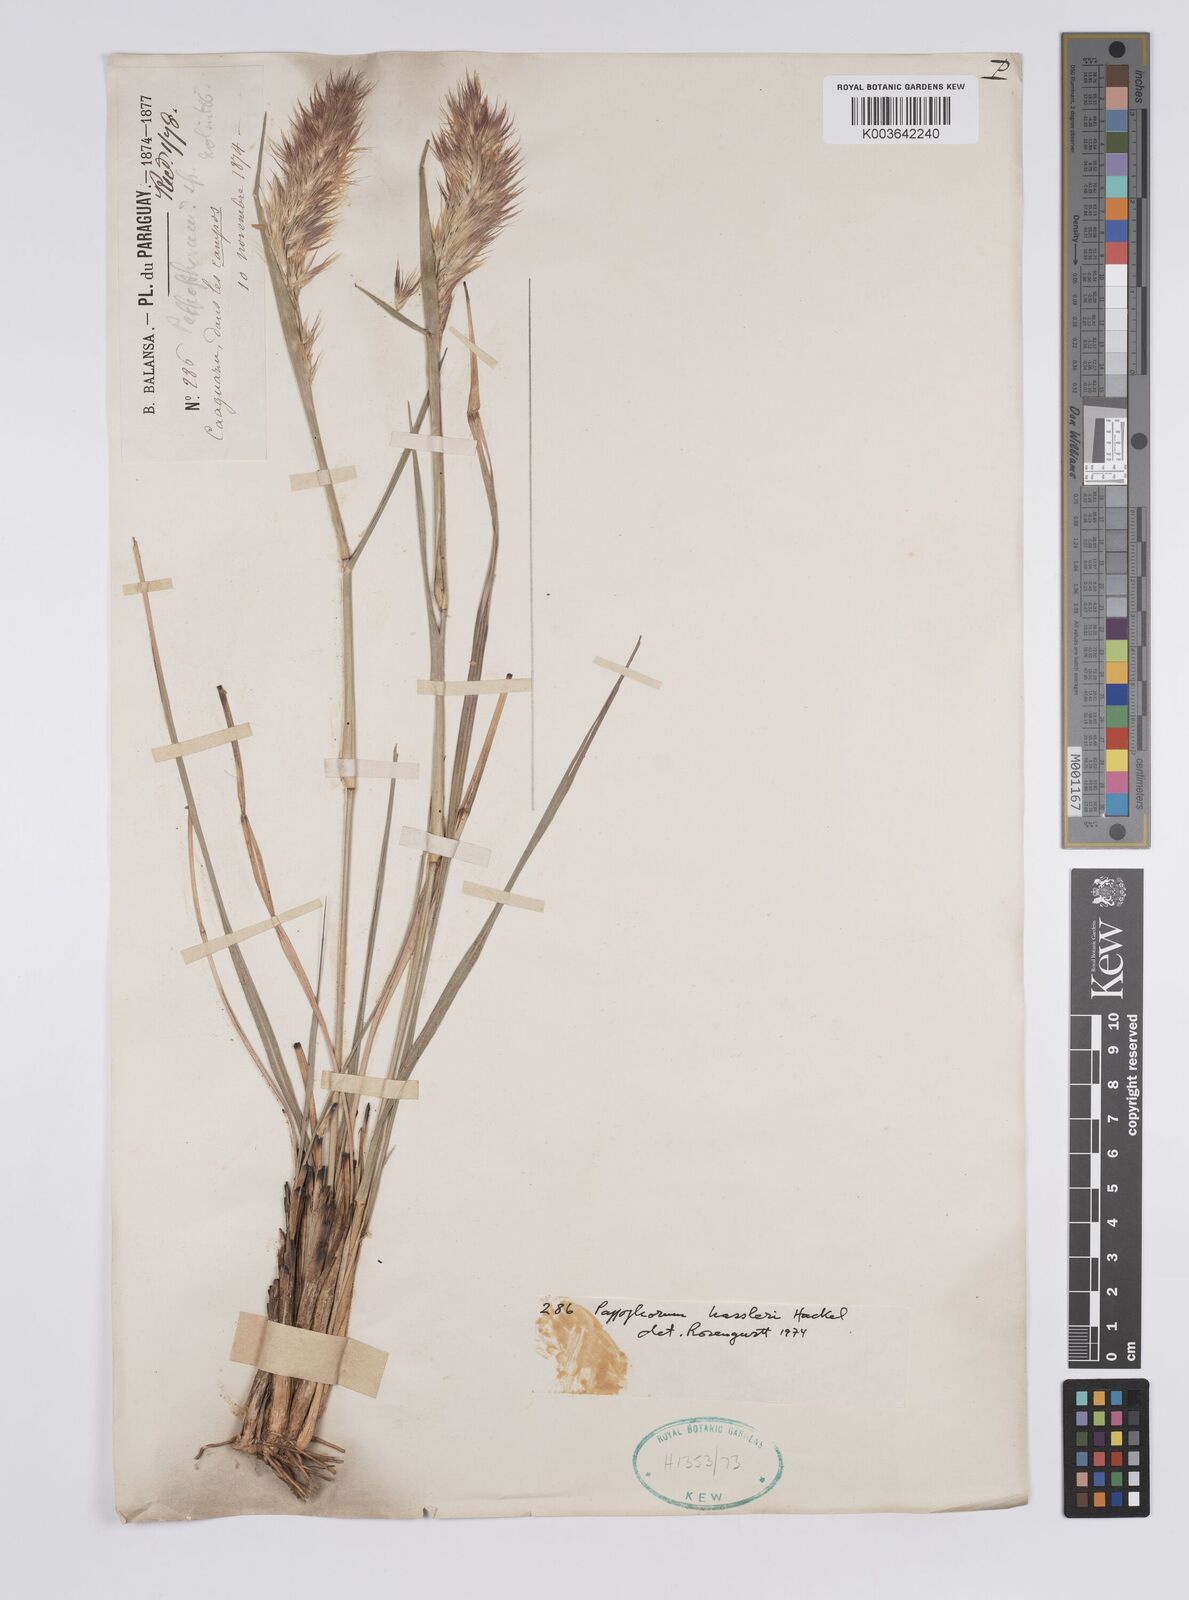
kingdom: Plantae
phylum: Tracheophyta
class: Liliopsida
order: Poales
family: Poaceae
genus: Pappophorum
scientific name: Pappophorum hassleri
